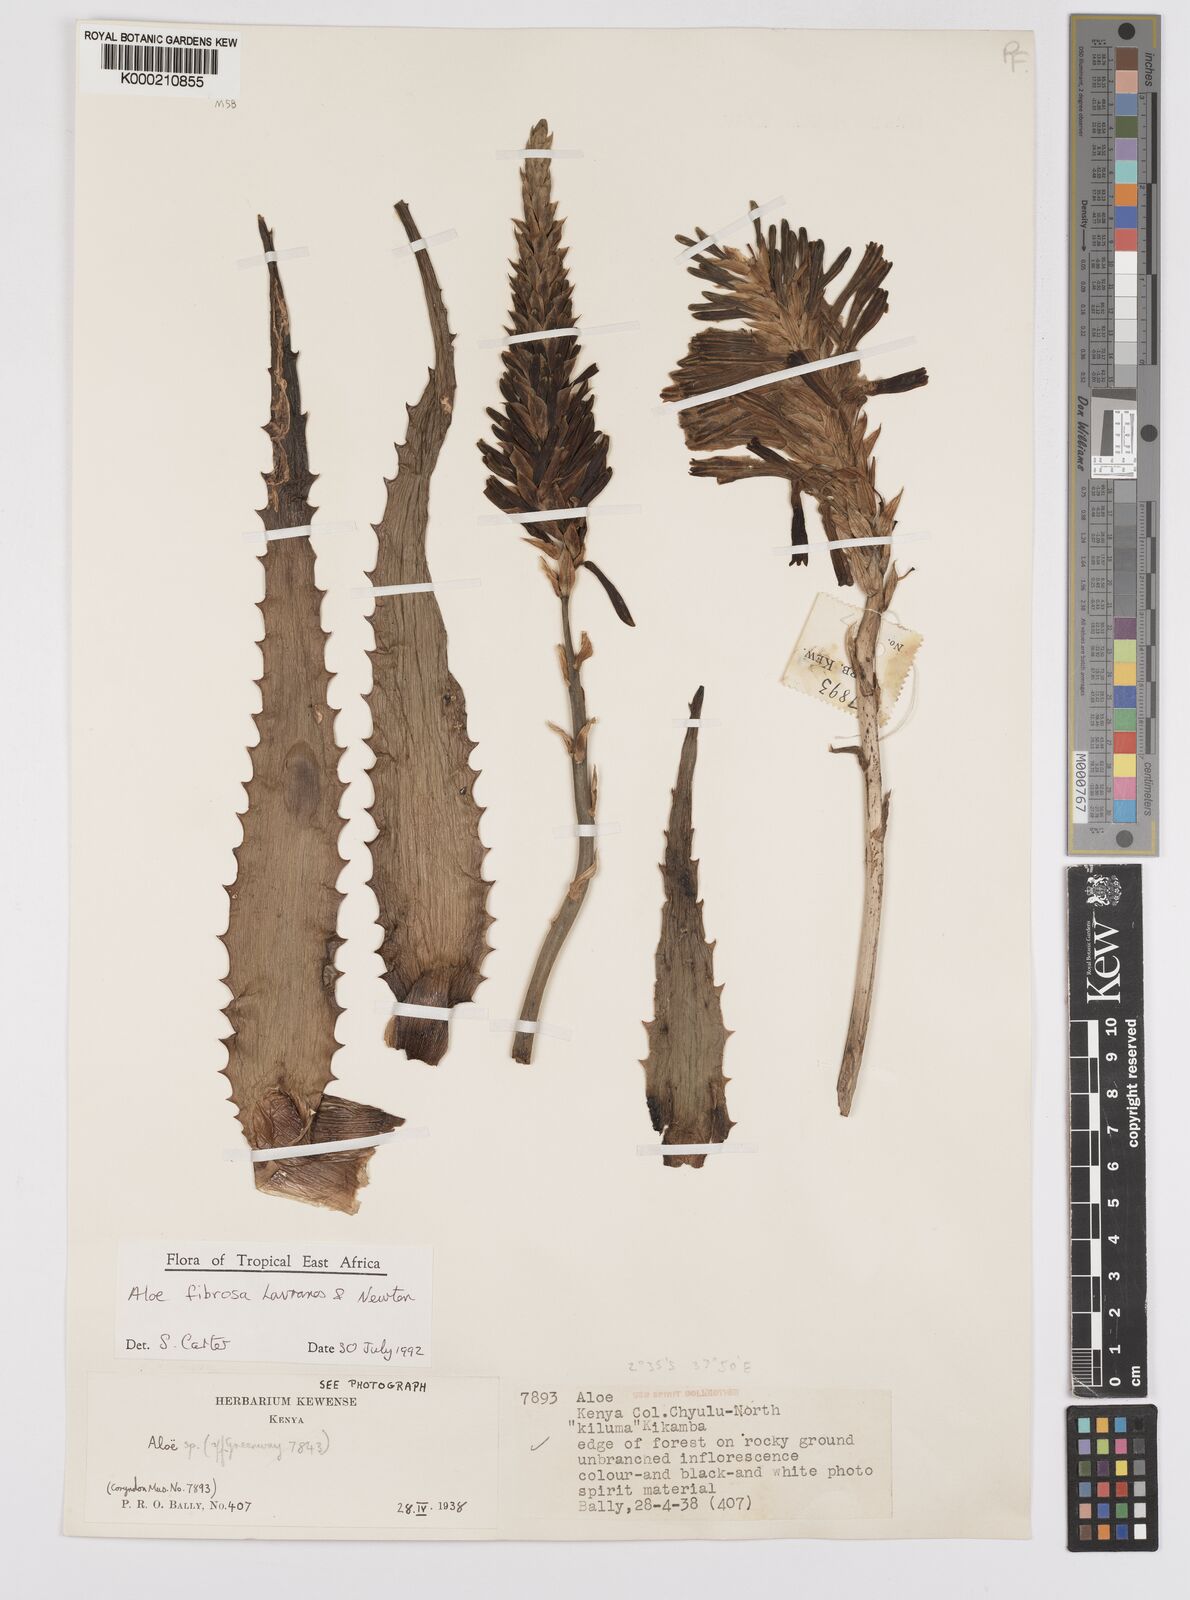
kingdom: Plantae
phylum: Tracheophyta
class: Liliopsida
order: Asparagales
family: Asphodelaceae
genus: Aloe
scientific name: Aloe fibrosa
